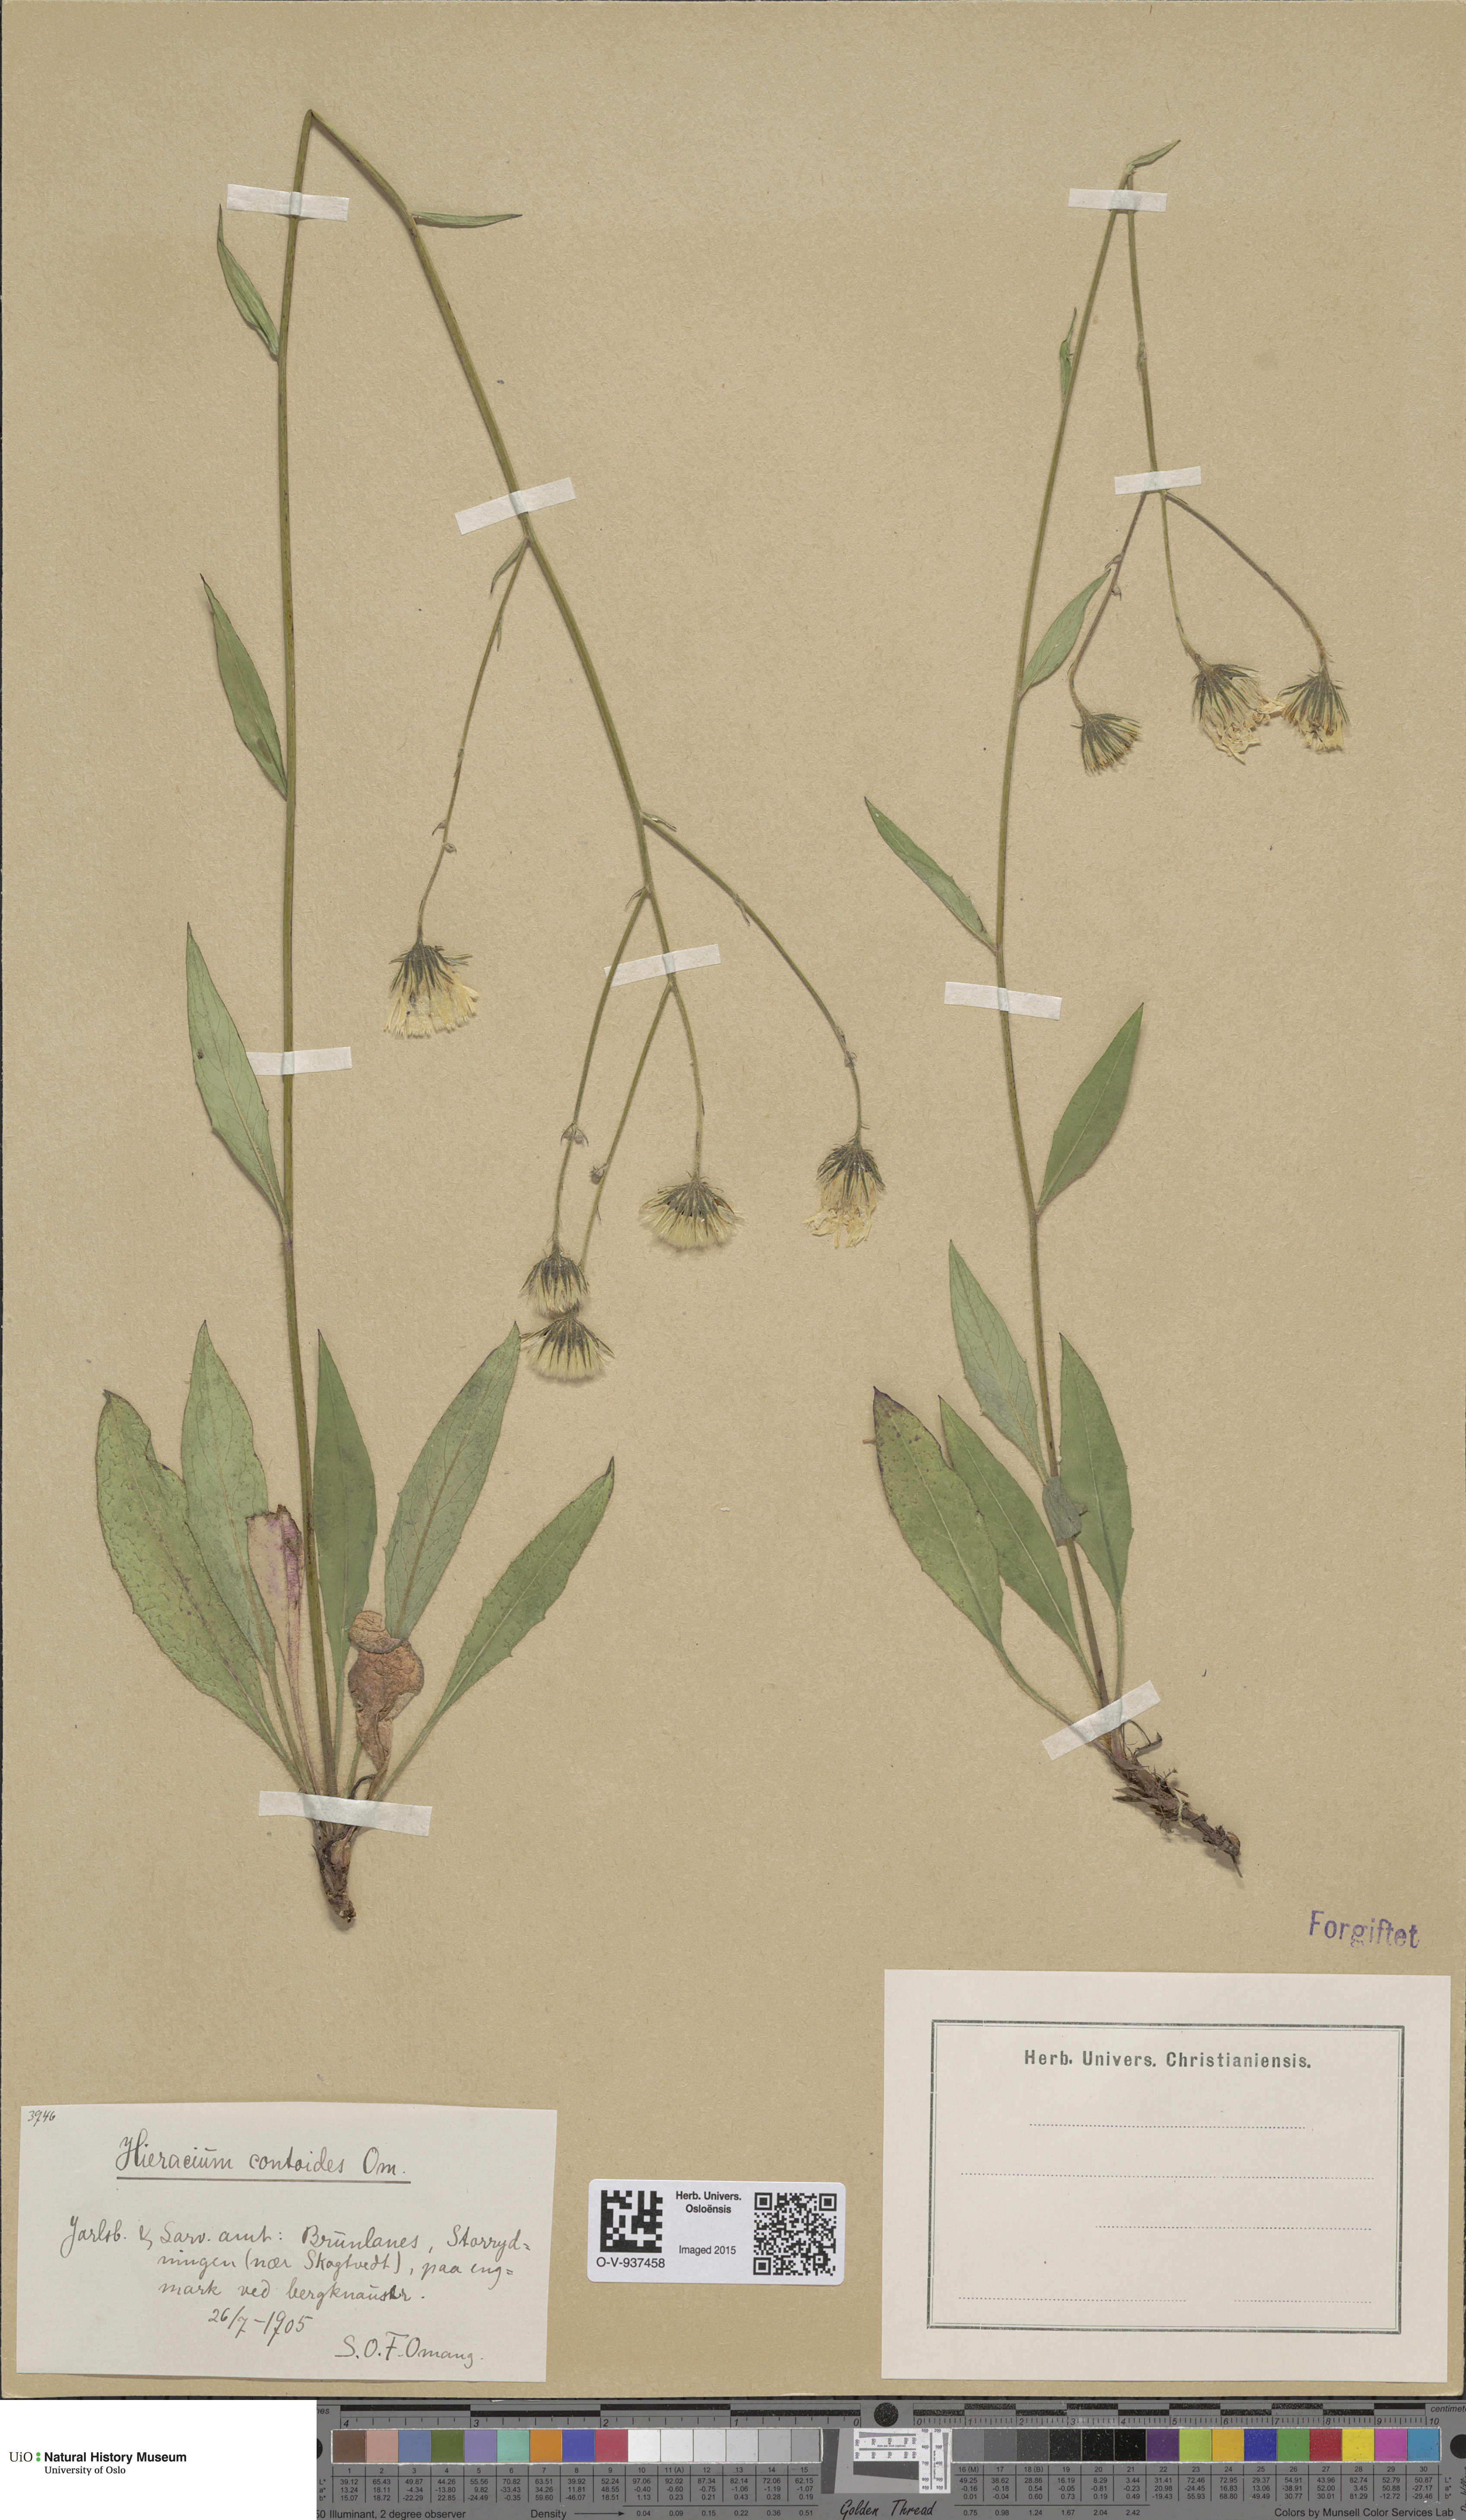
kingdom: Plantae
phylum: Tracheophyta
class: Magnoliopsida
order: Asterales
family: Asteraceae
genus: Hieracium
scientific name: Hieracium
